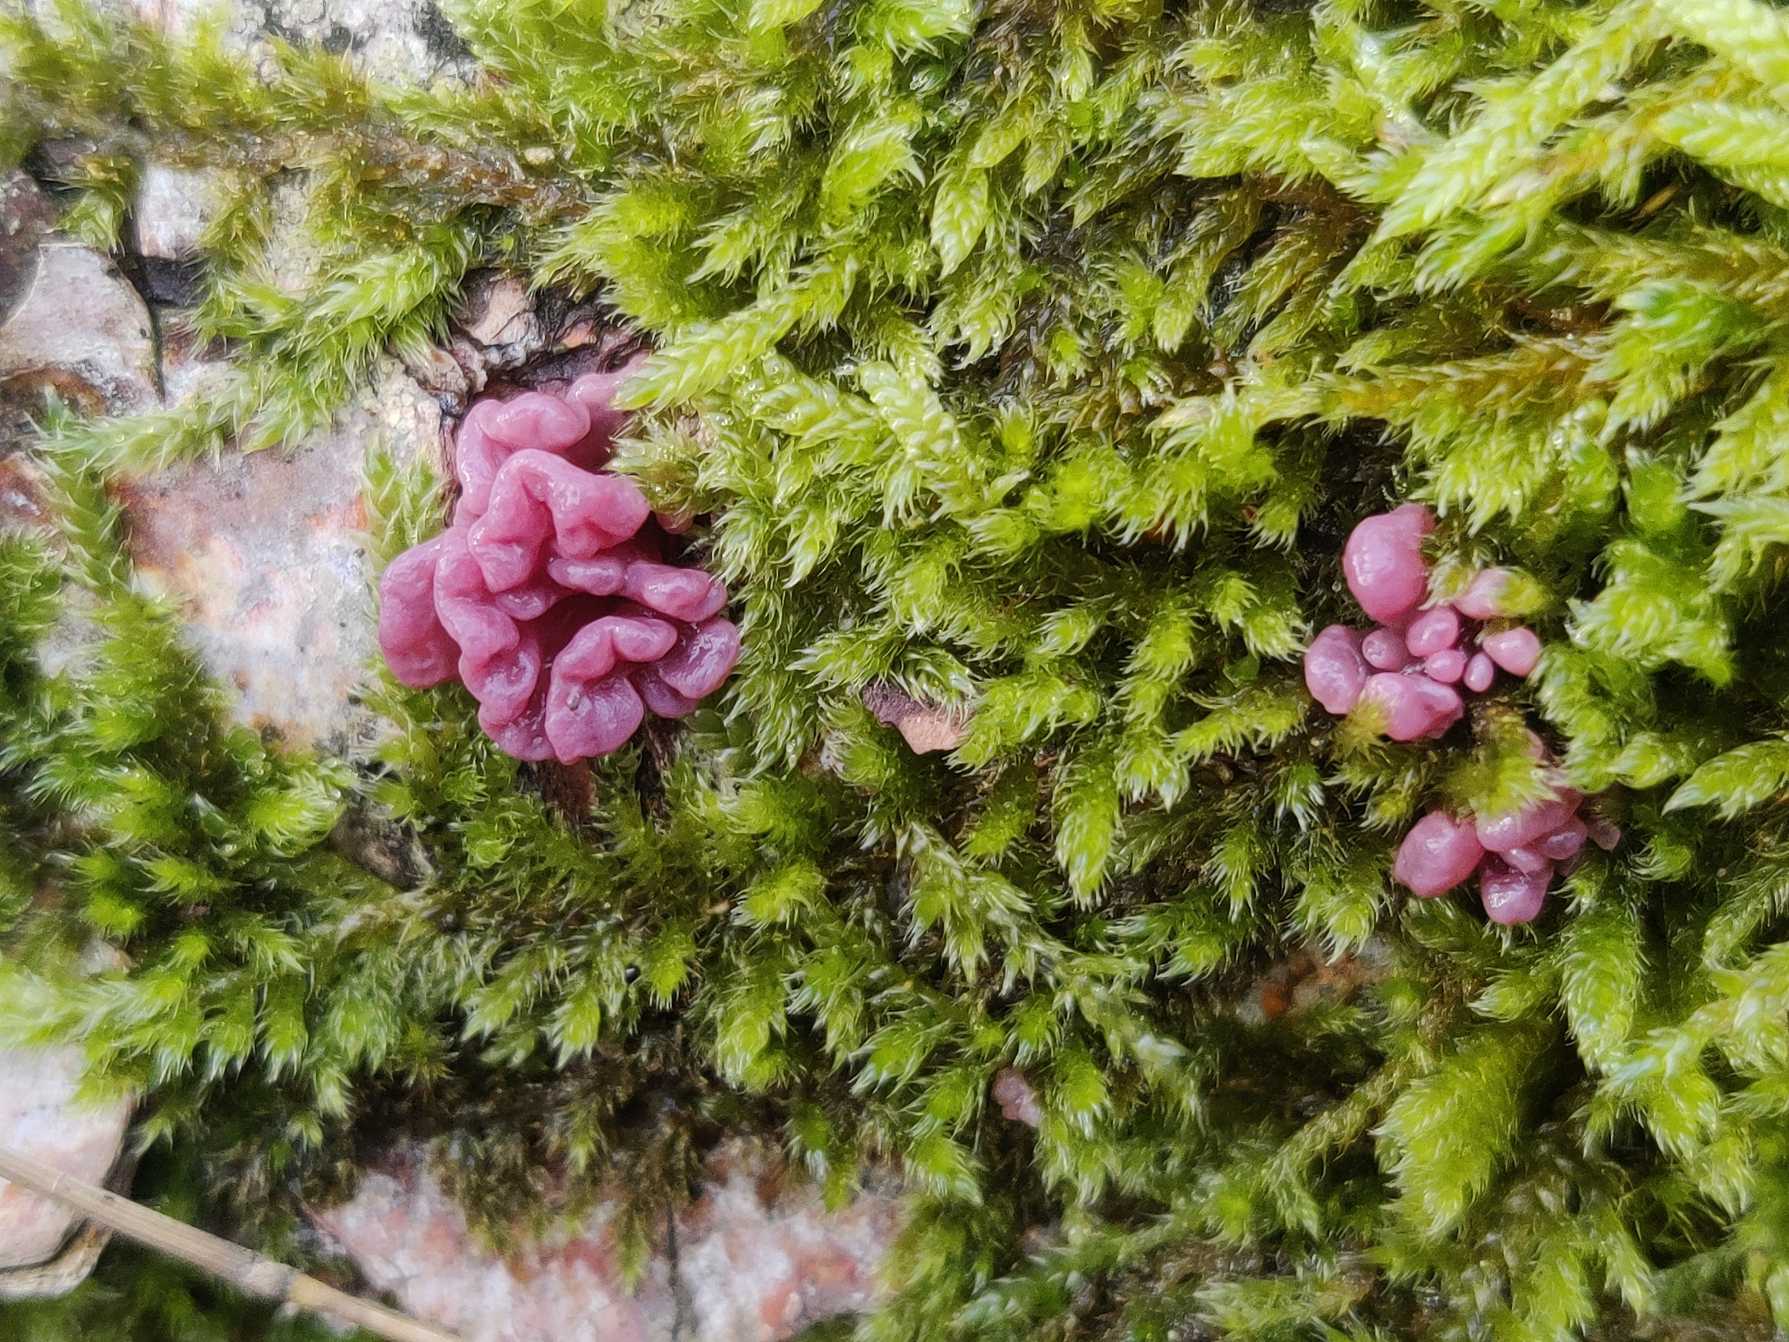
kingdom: Fungi
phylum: Ascomycota
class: Leotiomycetes
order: Helotiales
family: Gelatinodiscaceae
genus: Ascocoryne
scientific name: Ascocoryne sarcoides
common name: Rødlilla sejskive
